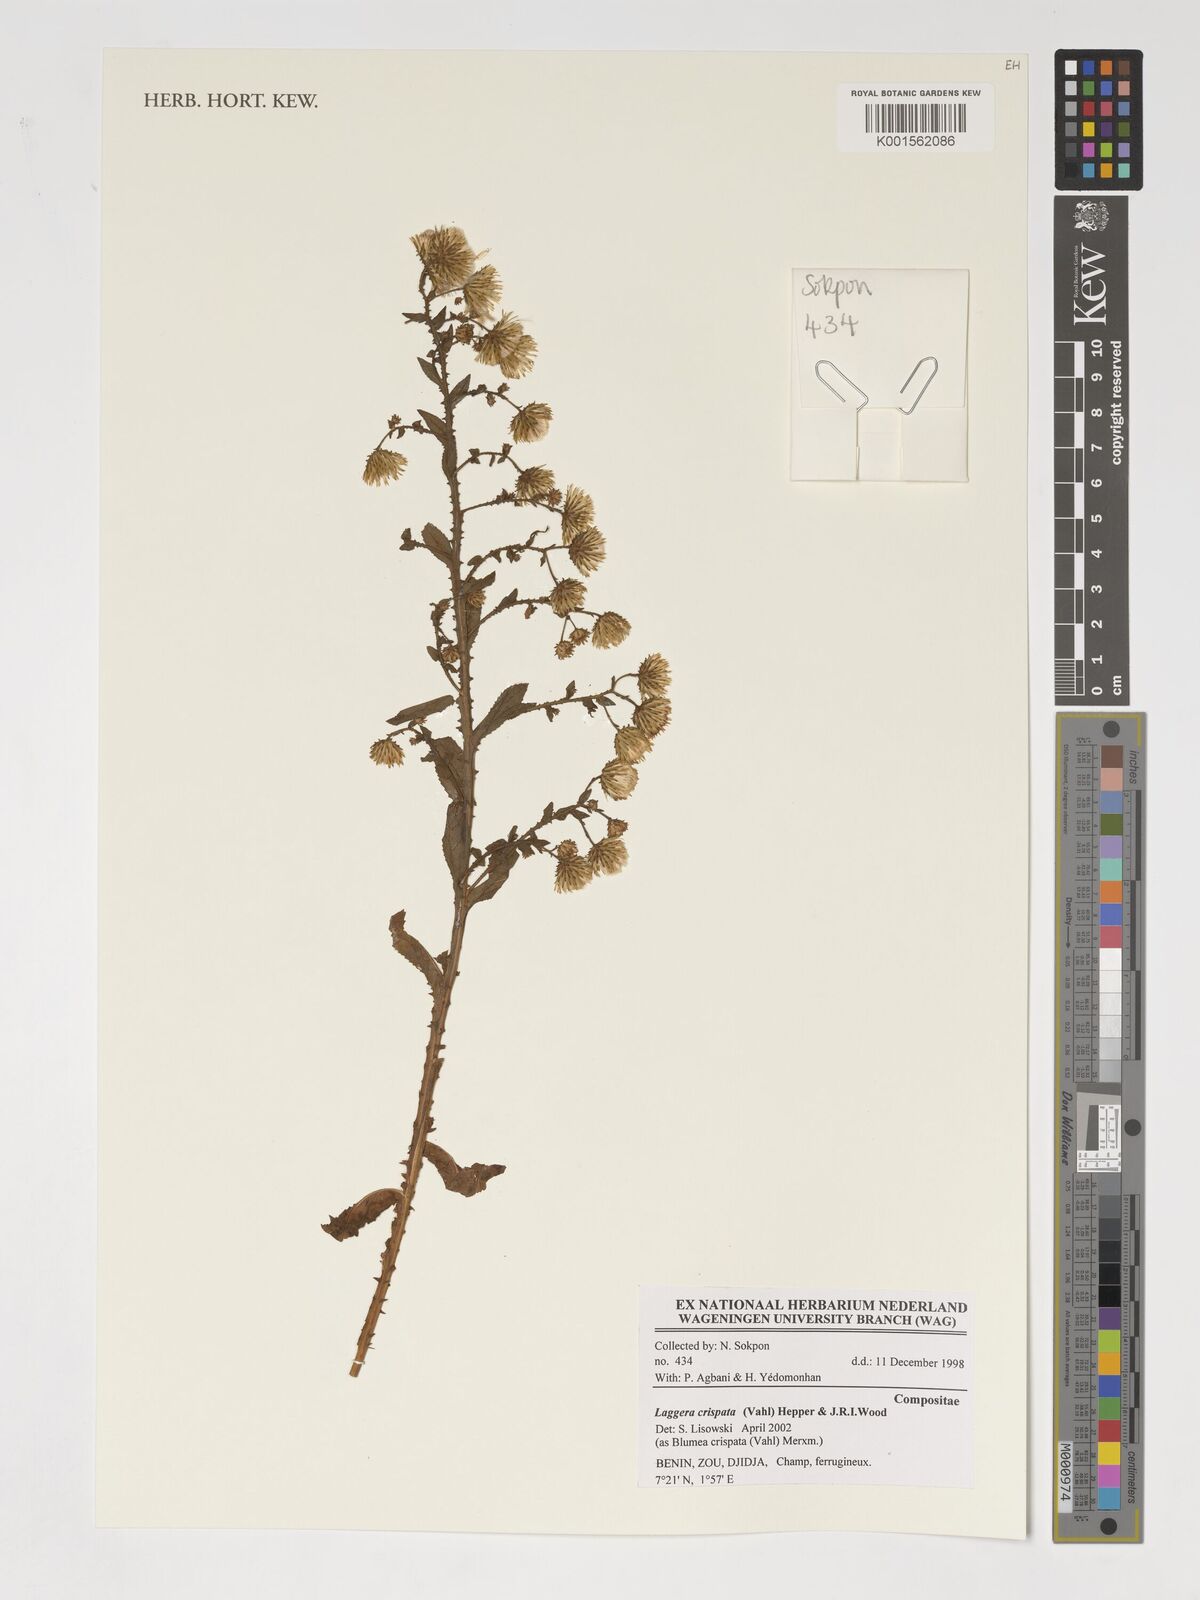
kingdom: Plantae
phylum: Tracheophyta
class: Magnoliopsida
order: Asterales
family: Asteraceae
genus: Laggera
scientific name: Laggera crispata
